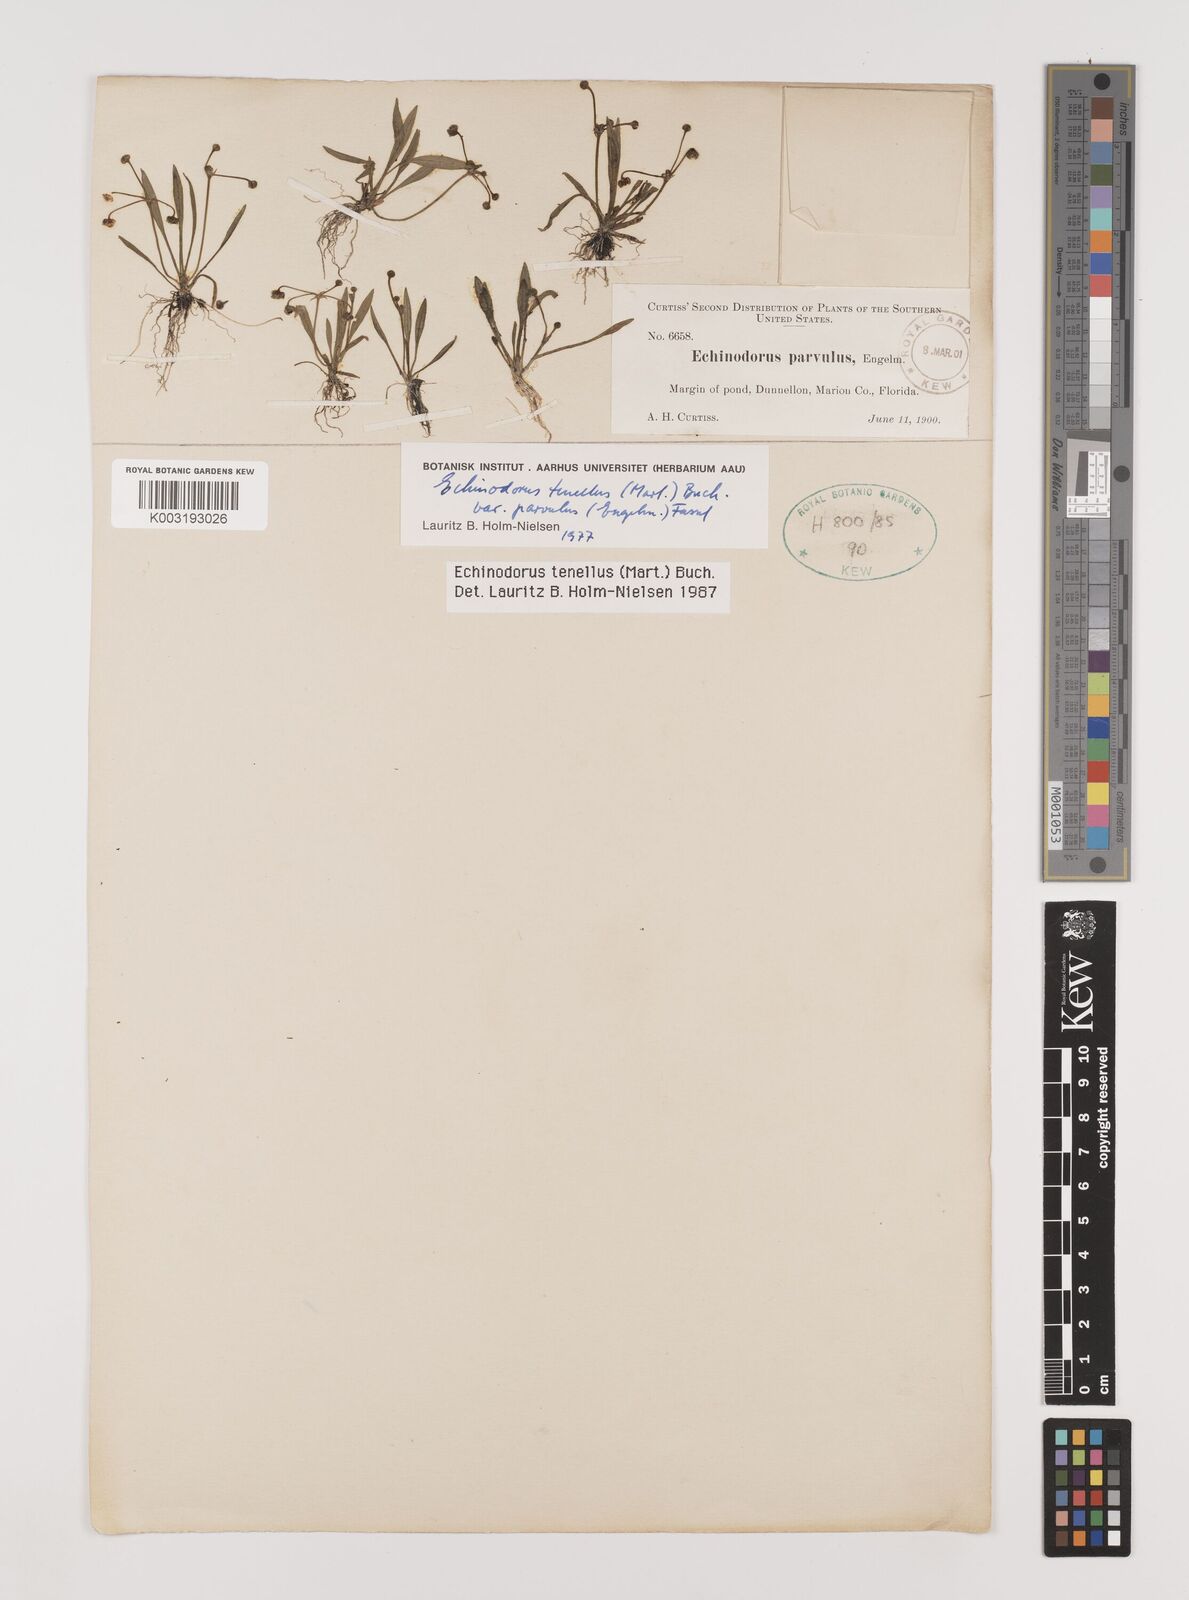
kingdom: Plantae
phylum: Tracheophyta
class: Liliopsida
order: Alismatales
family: Alismataceae
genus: Helanthium
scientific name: Helanthium tenellum
